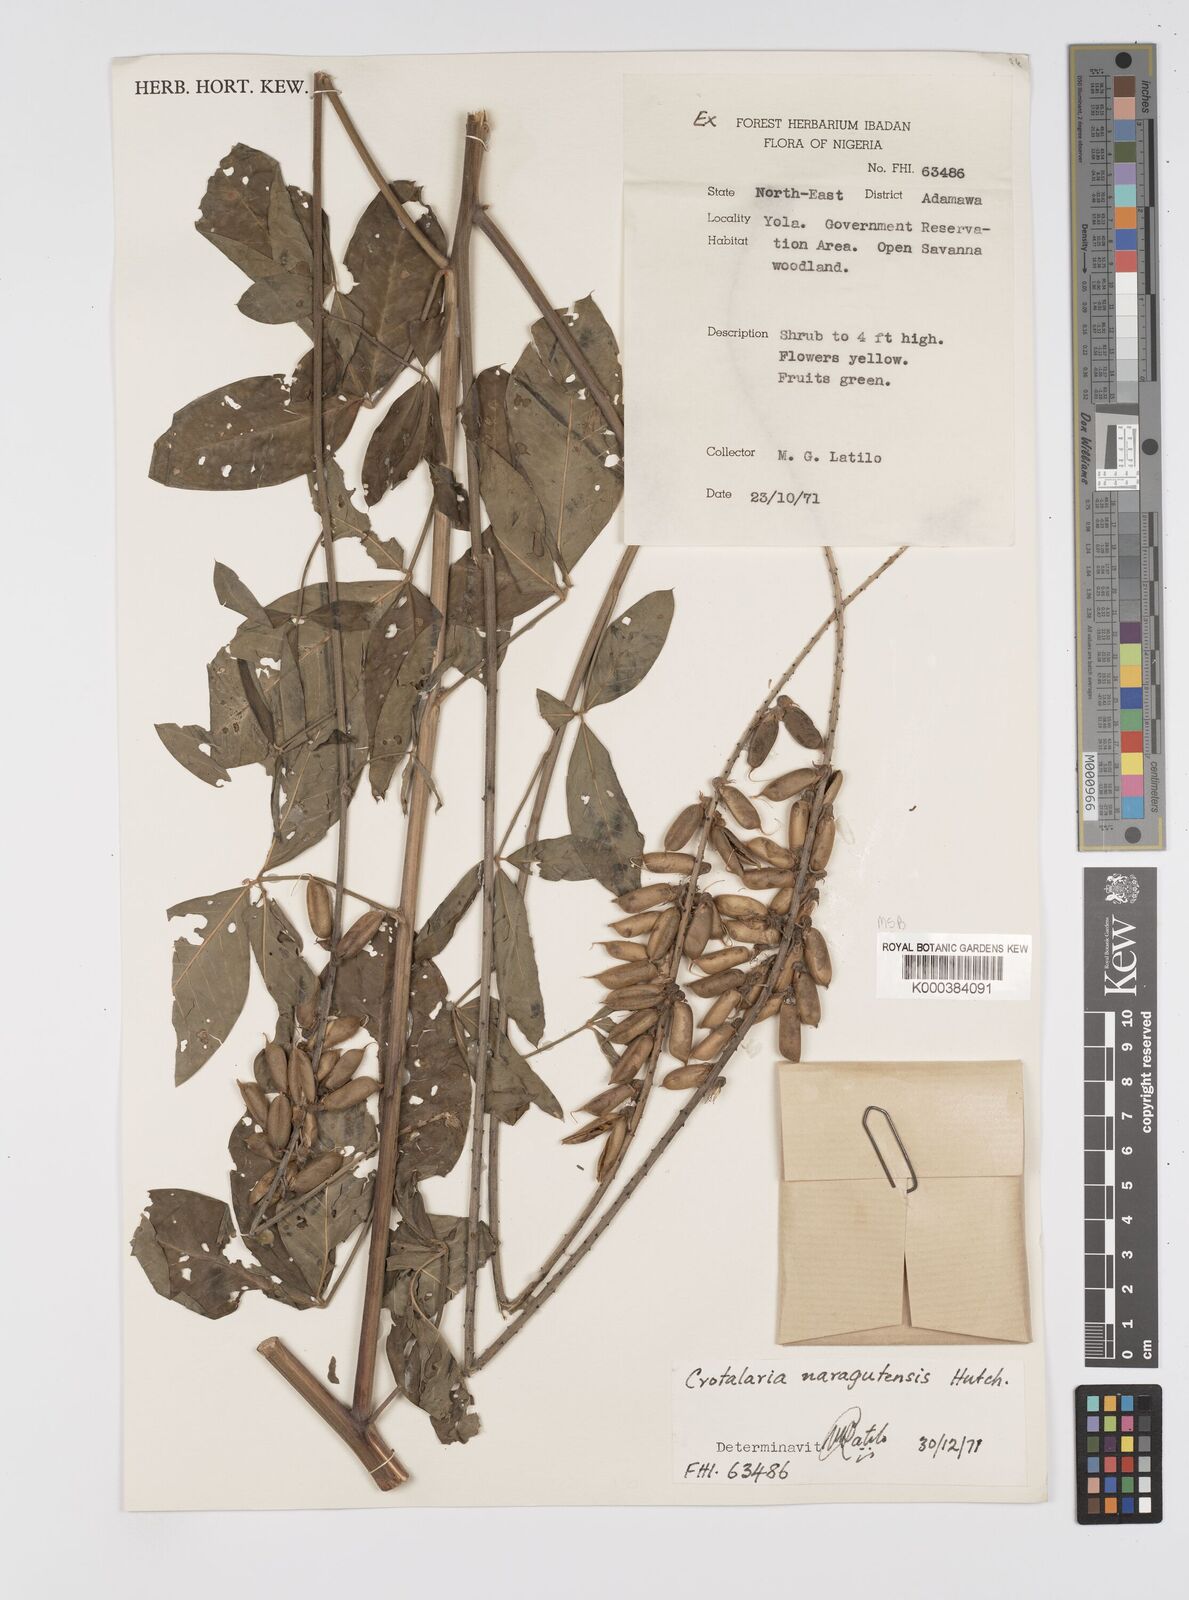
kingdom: Plantae
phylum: Tracheophyta
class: Magnoliopsida
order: Fabales
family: Fabaceae
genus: Crotalaria
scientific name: Crotalaria naragutensis
